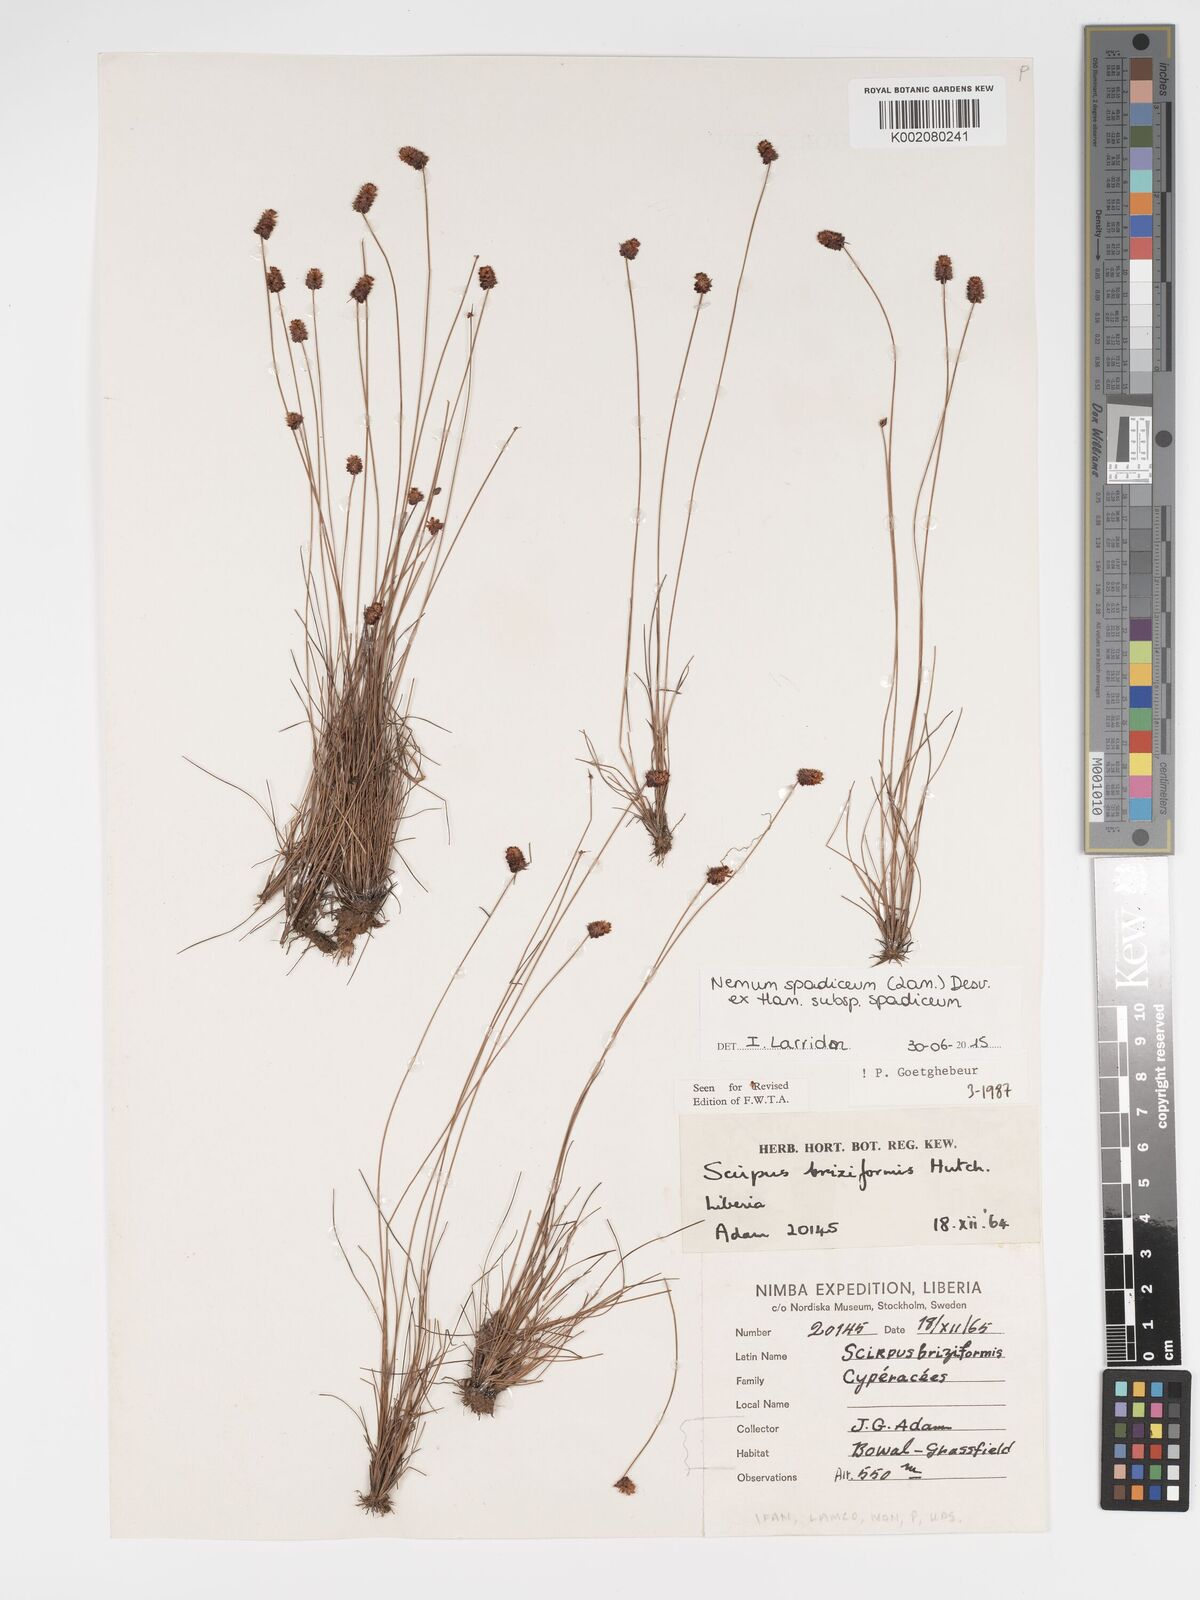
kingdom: Plantae
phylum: Tracheophyta
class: Liliopsida
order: Poales
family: Cyperaceae
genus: Bulbostylis
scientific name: Bulbostylis briziformis
